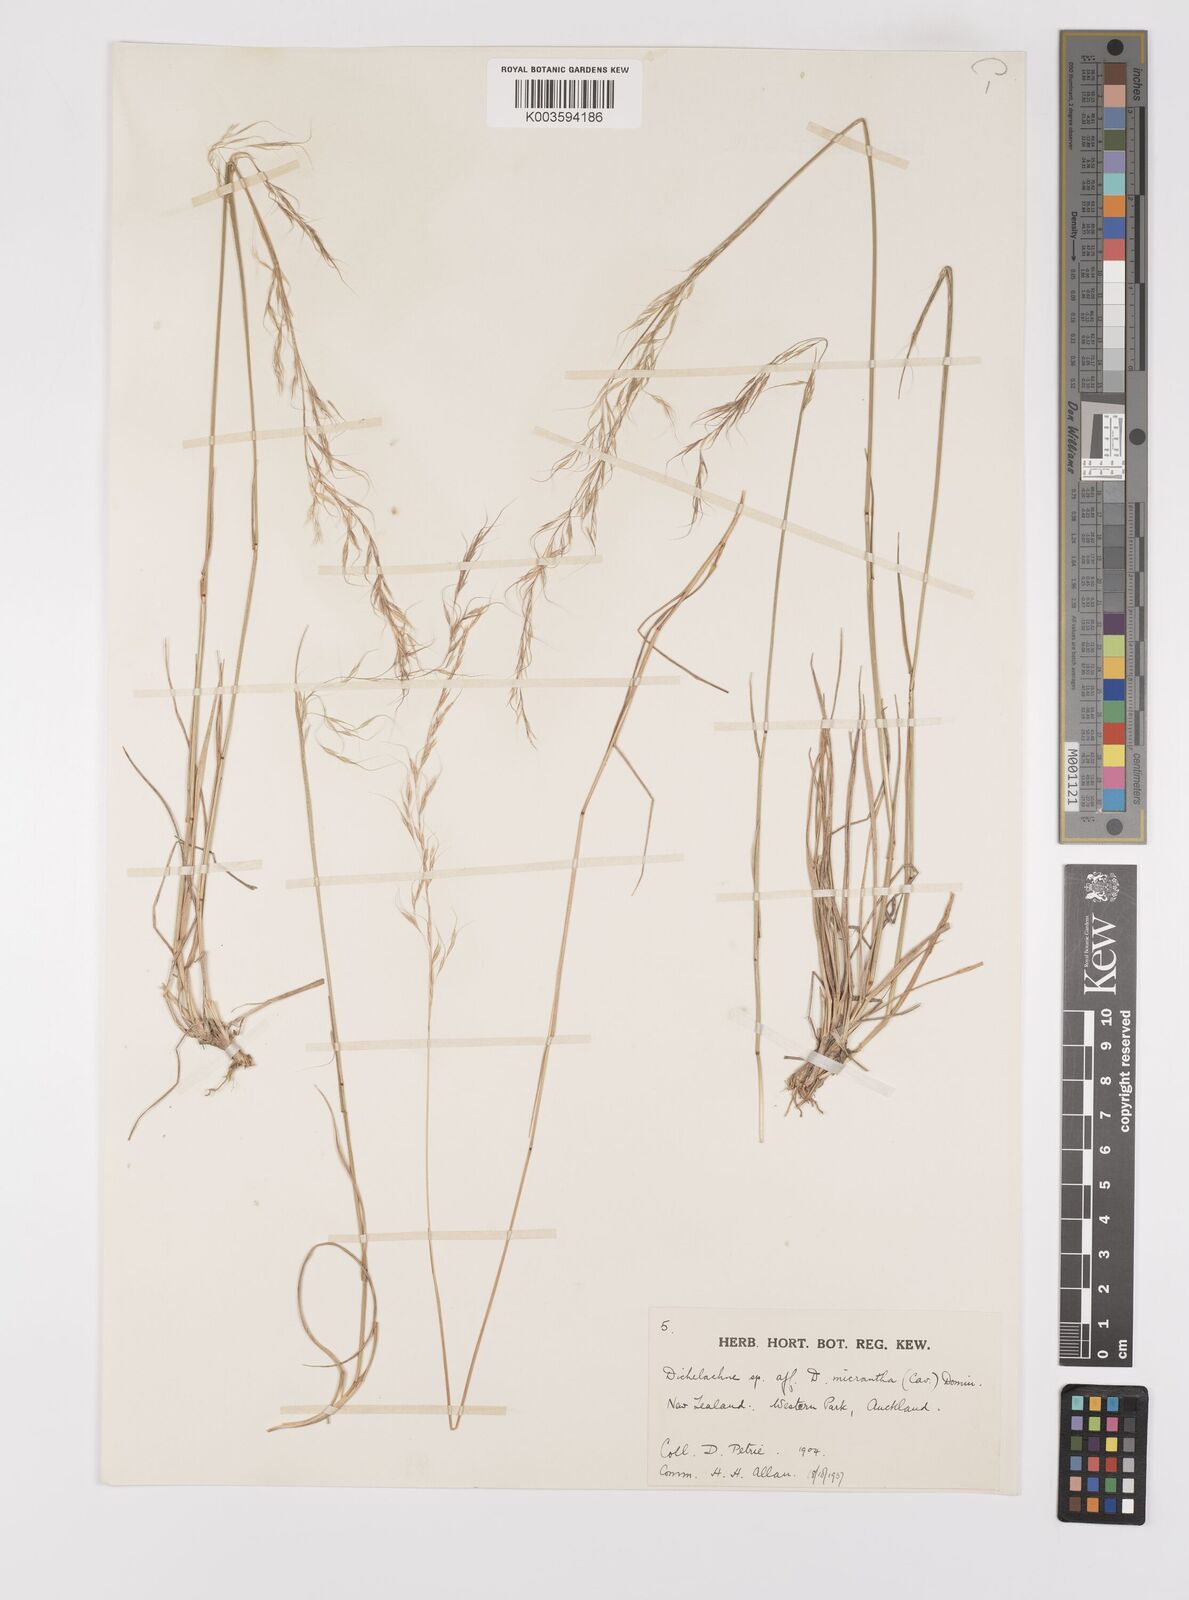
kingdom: Plantae
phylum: Tracheophyta
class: Liliopsida
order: Poales
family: Poaceae
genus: Dichelachne
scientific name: Dichelachne rara
